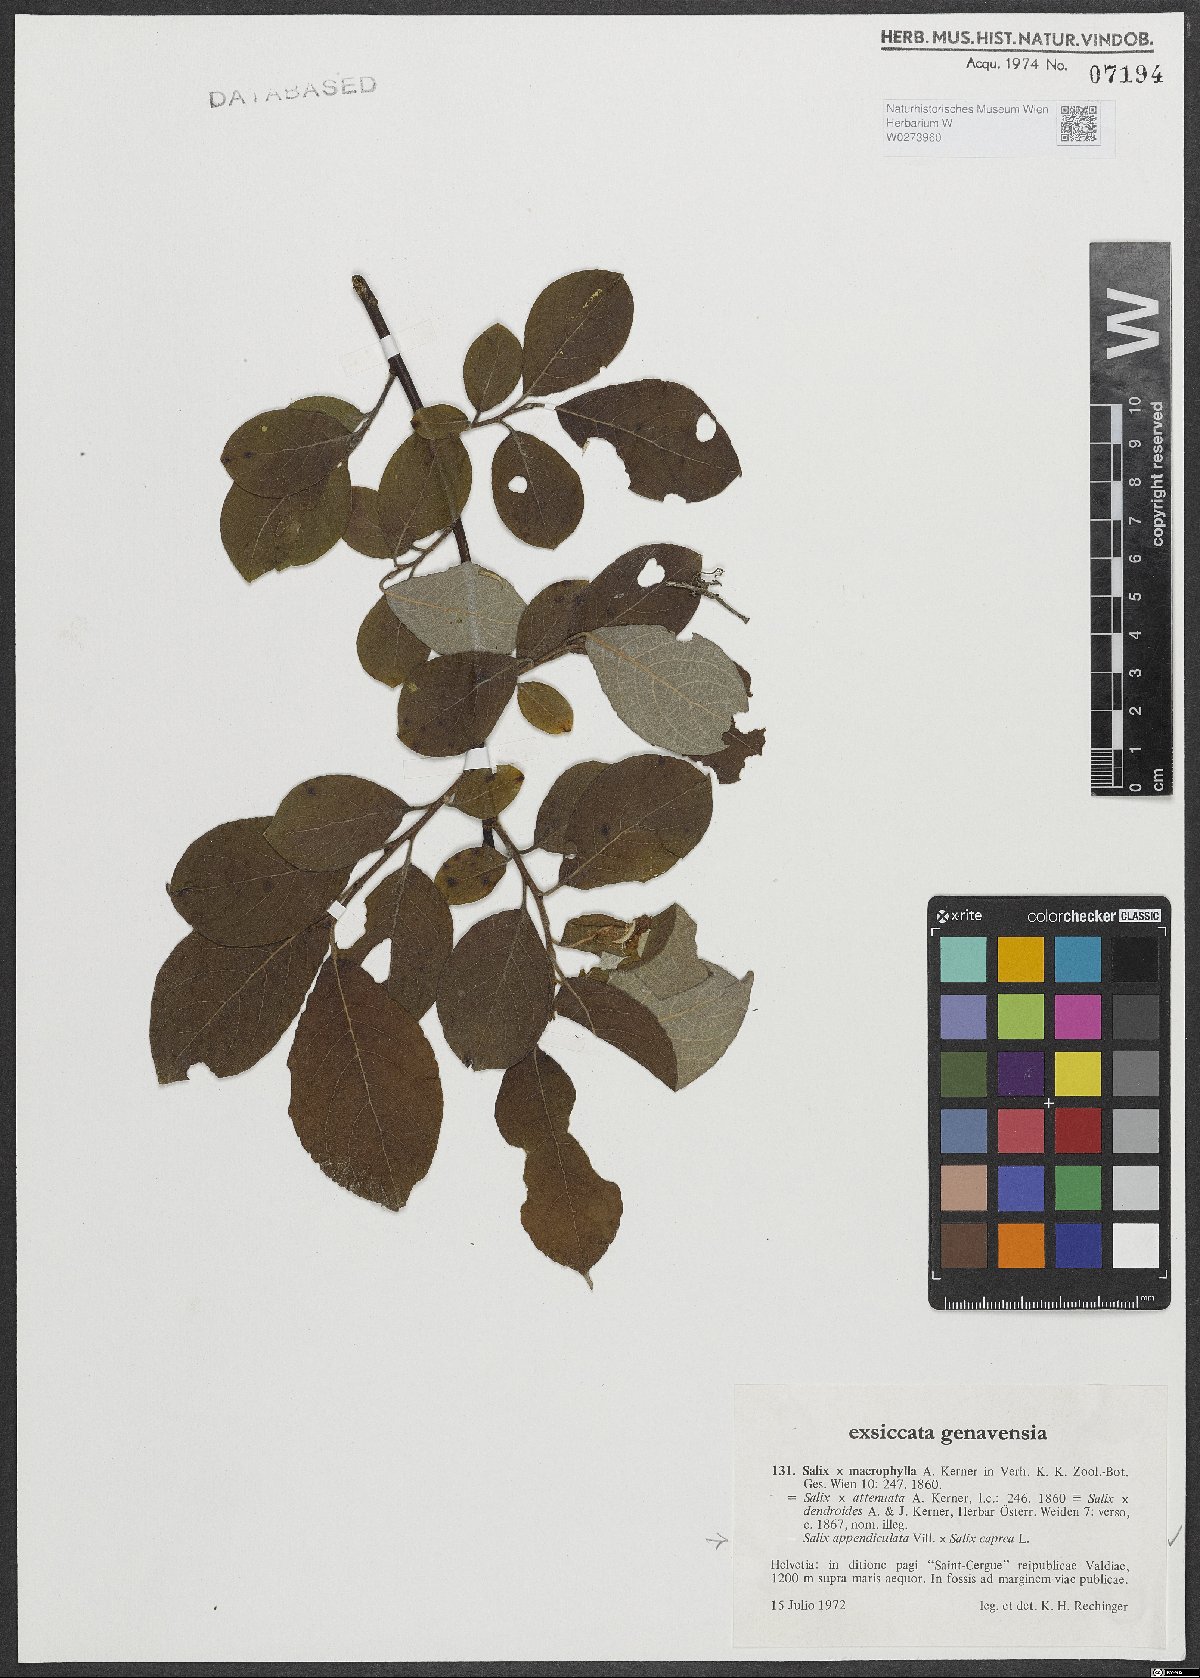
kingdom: Plantae
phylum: Tracheophyta
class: Magnoliopsida
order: Malpighiales
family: Salicaceae
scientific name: Salicaceae
